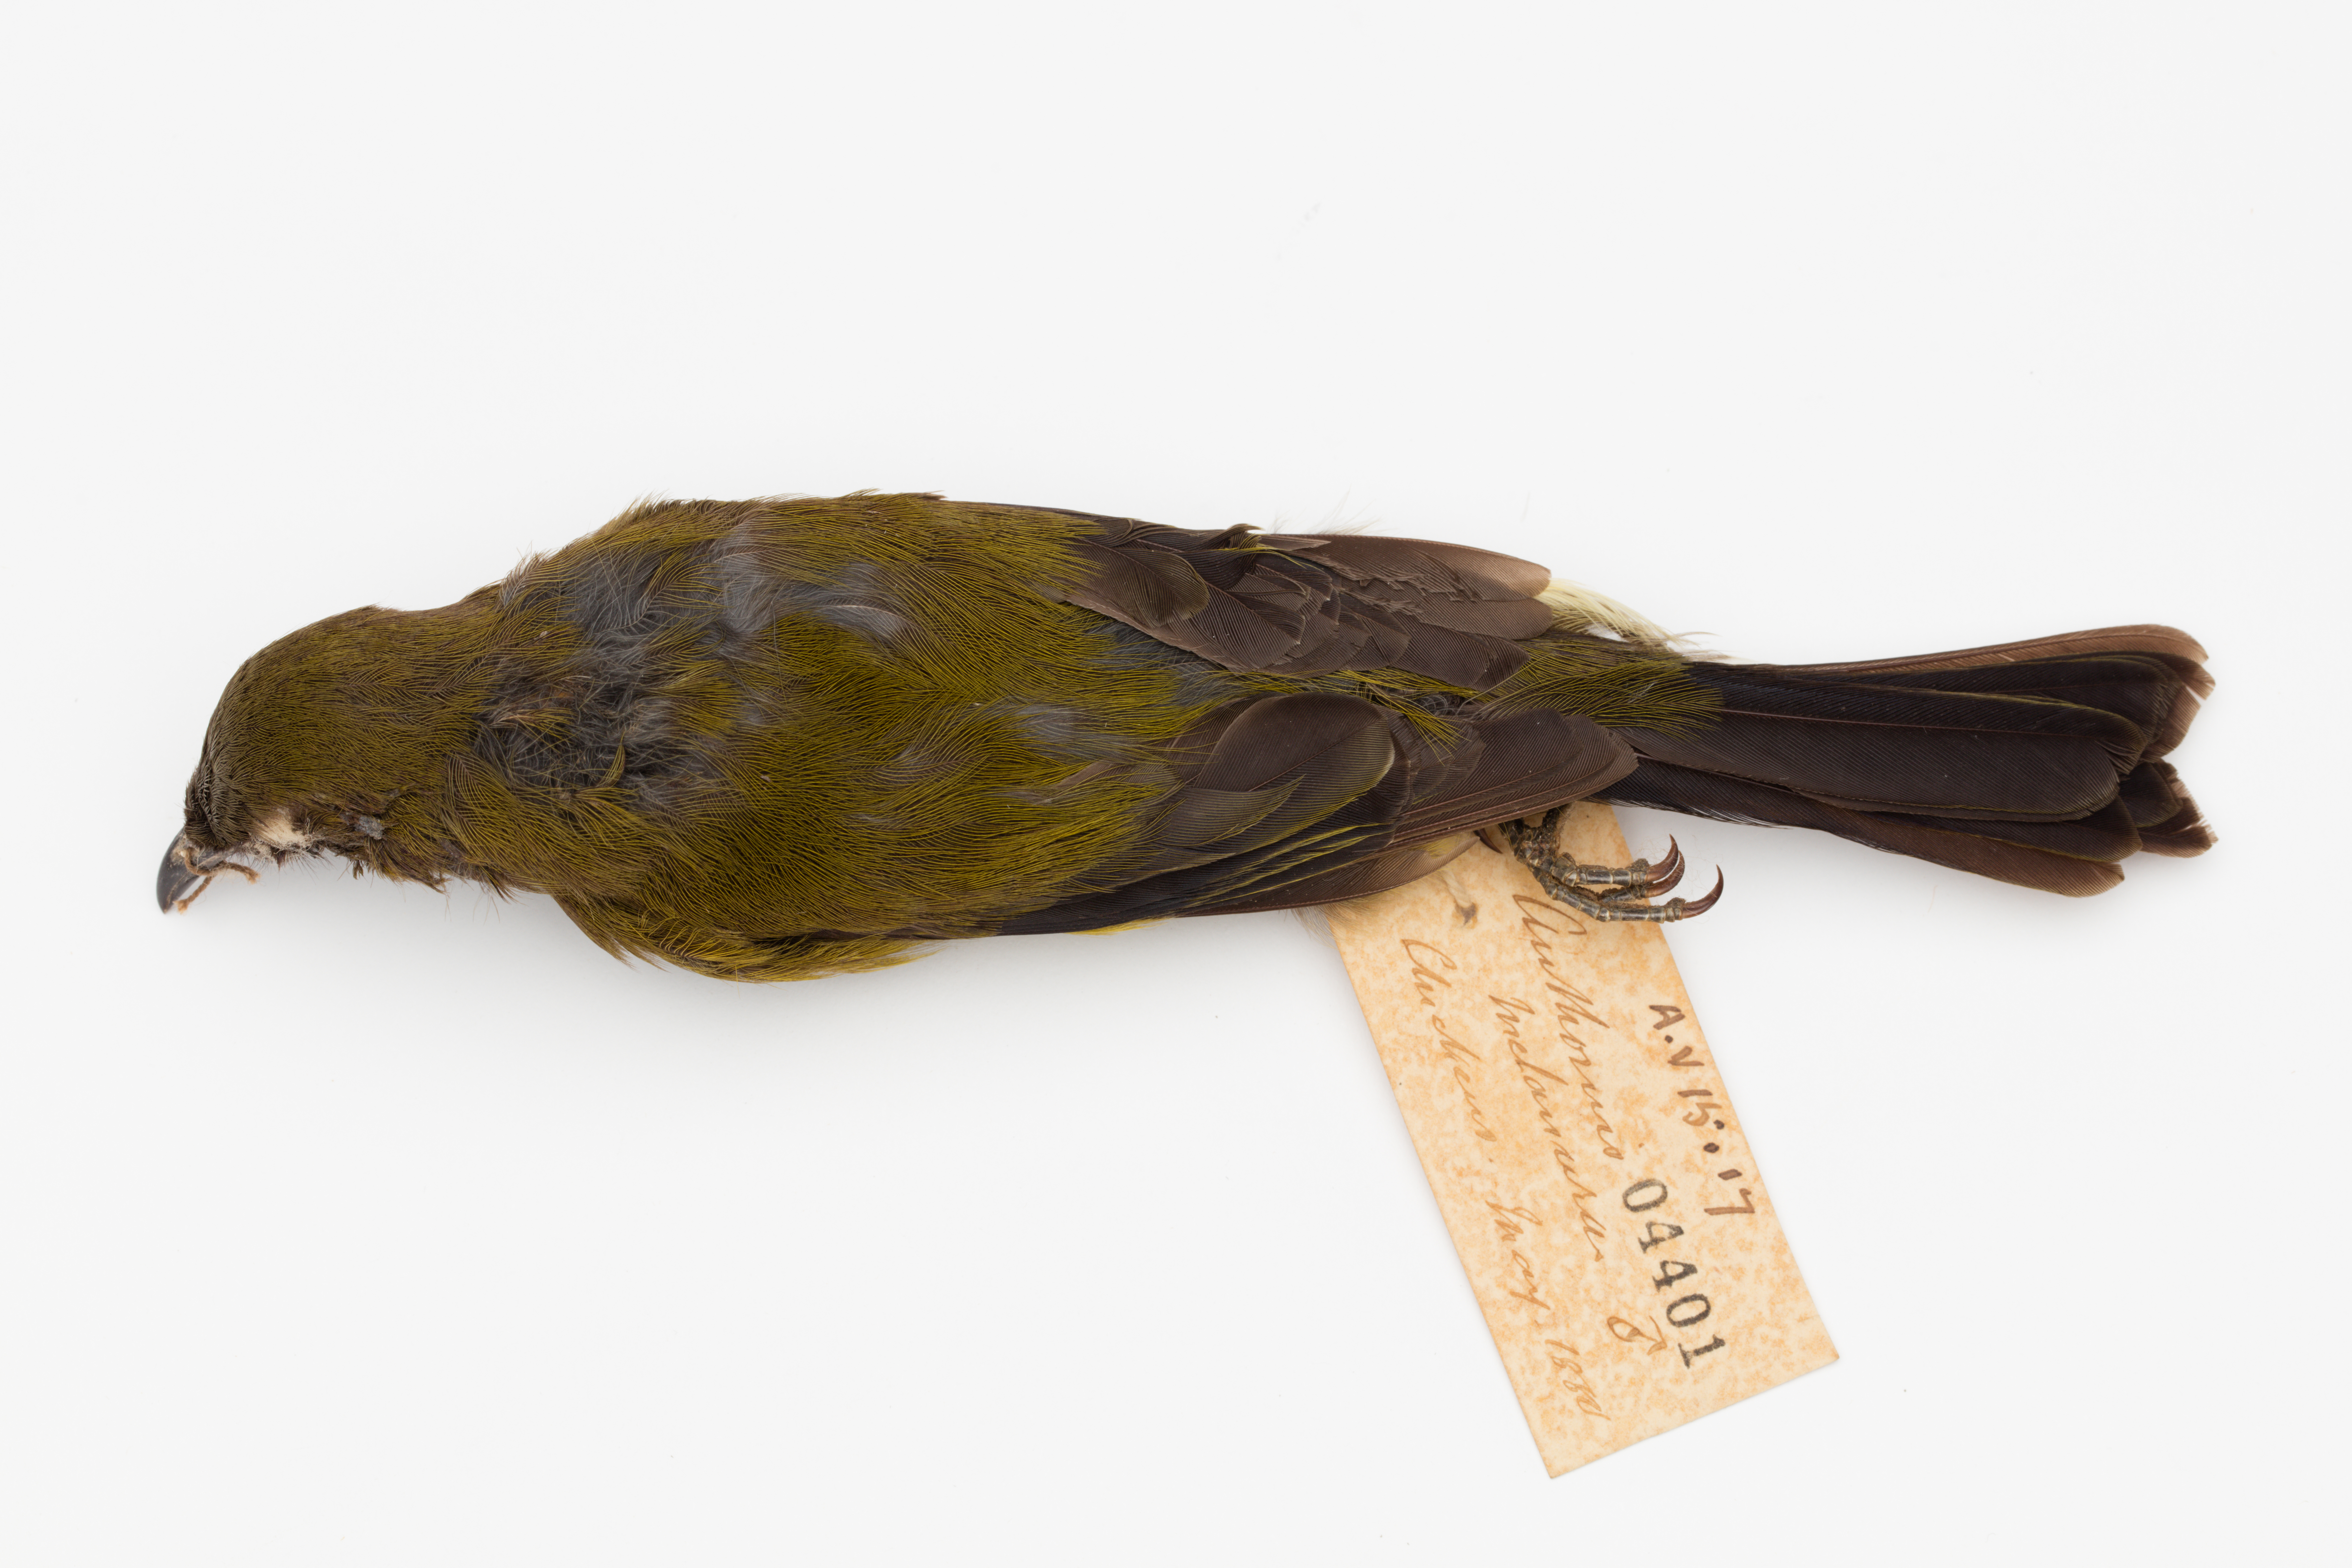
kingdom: Animalia
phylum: Chordata
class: Aves
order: Passeriformes
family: Meliphagidae
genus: Anthornis
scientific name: Anthornis melanura
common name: New zealand bellbird
